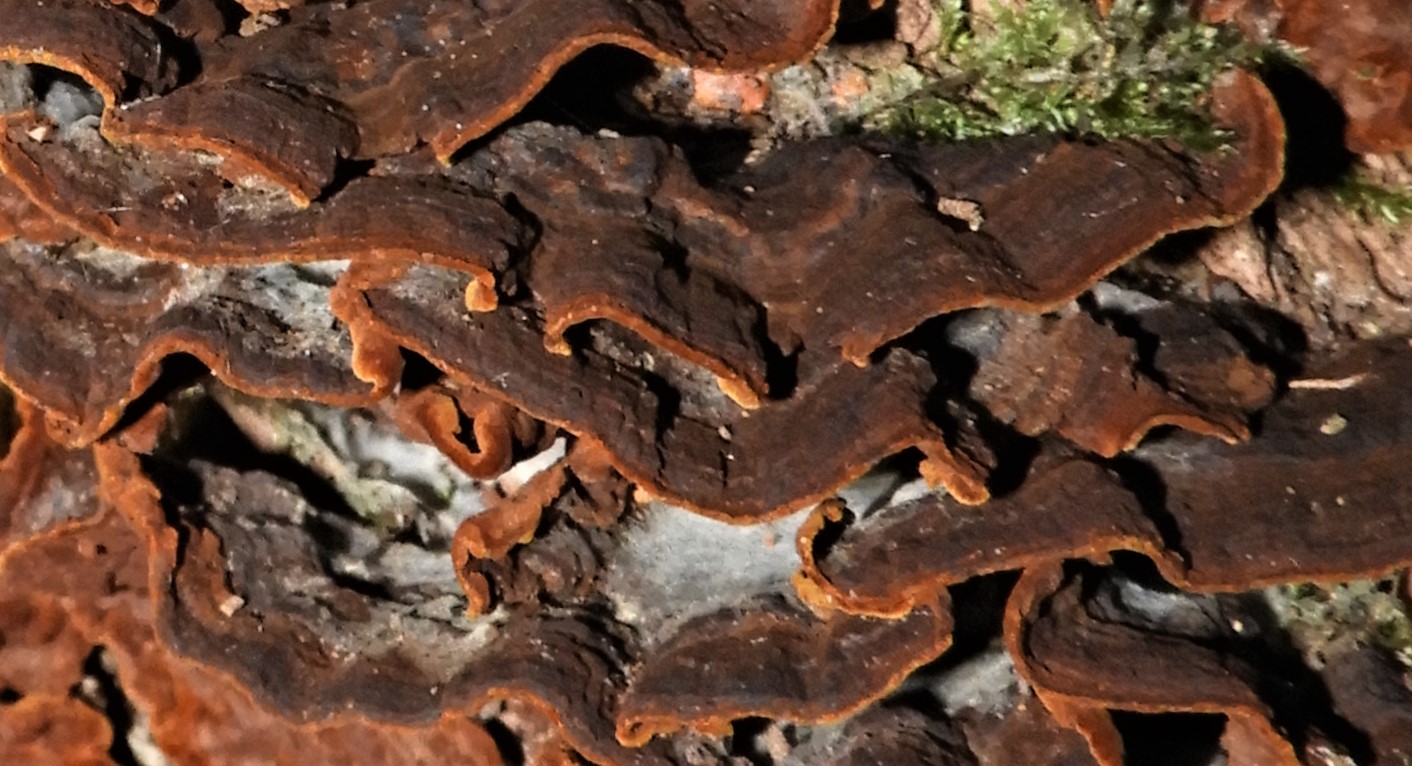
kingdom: Fungi
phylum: Basidiomycota
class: Agaricomycetes
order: Hymenochaetales
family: Hymenochaetaceae
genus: Hymenochaete
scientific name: Hymenochaete rubiginosa
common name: stiv ruslædersvamp
